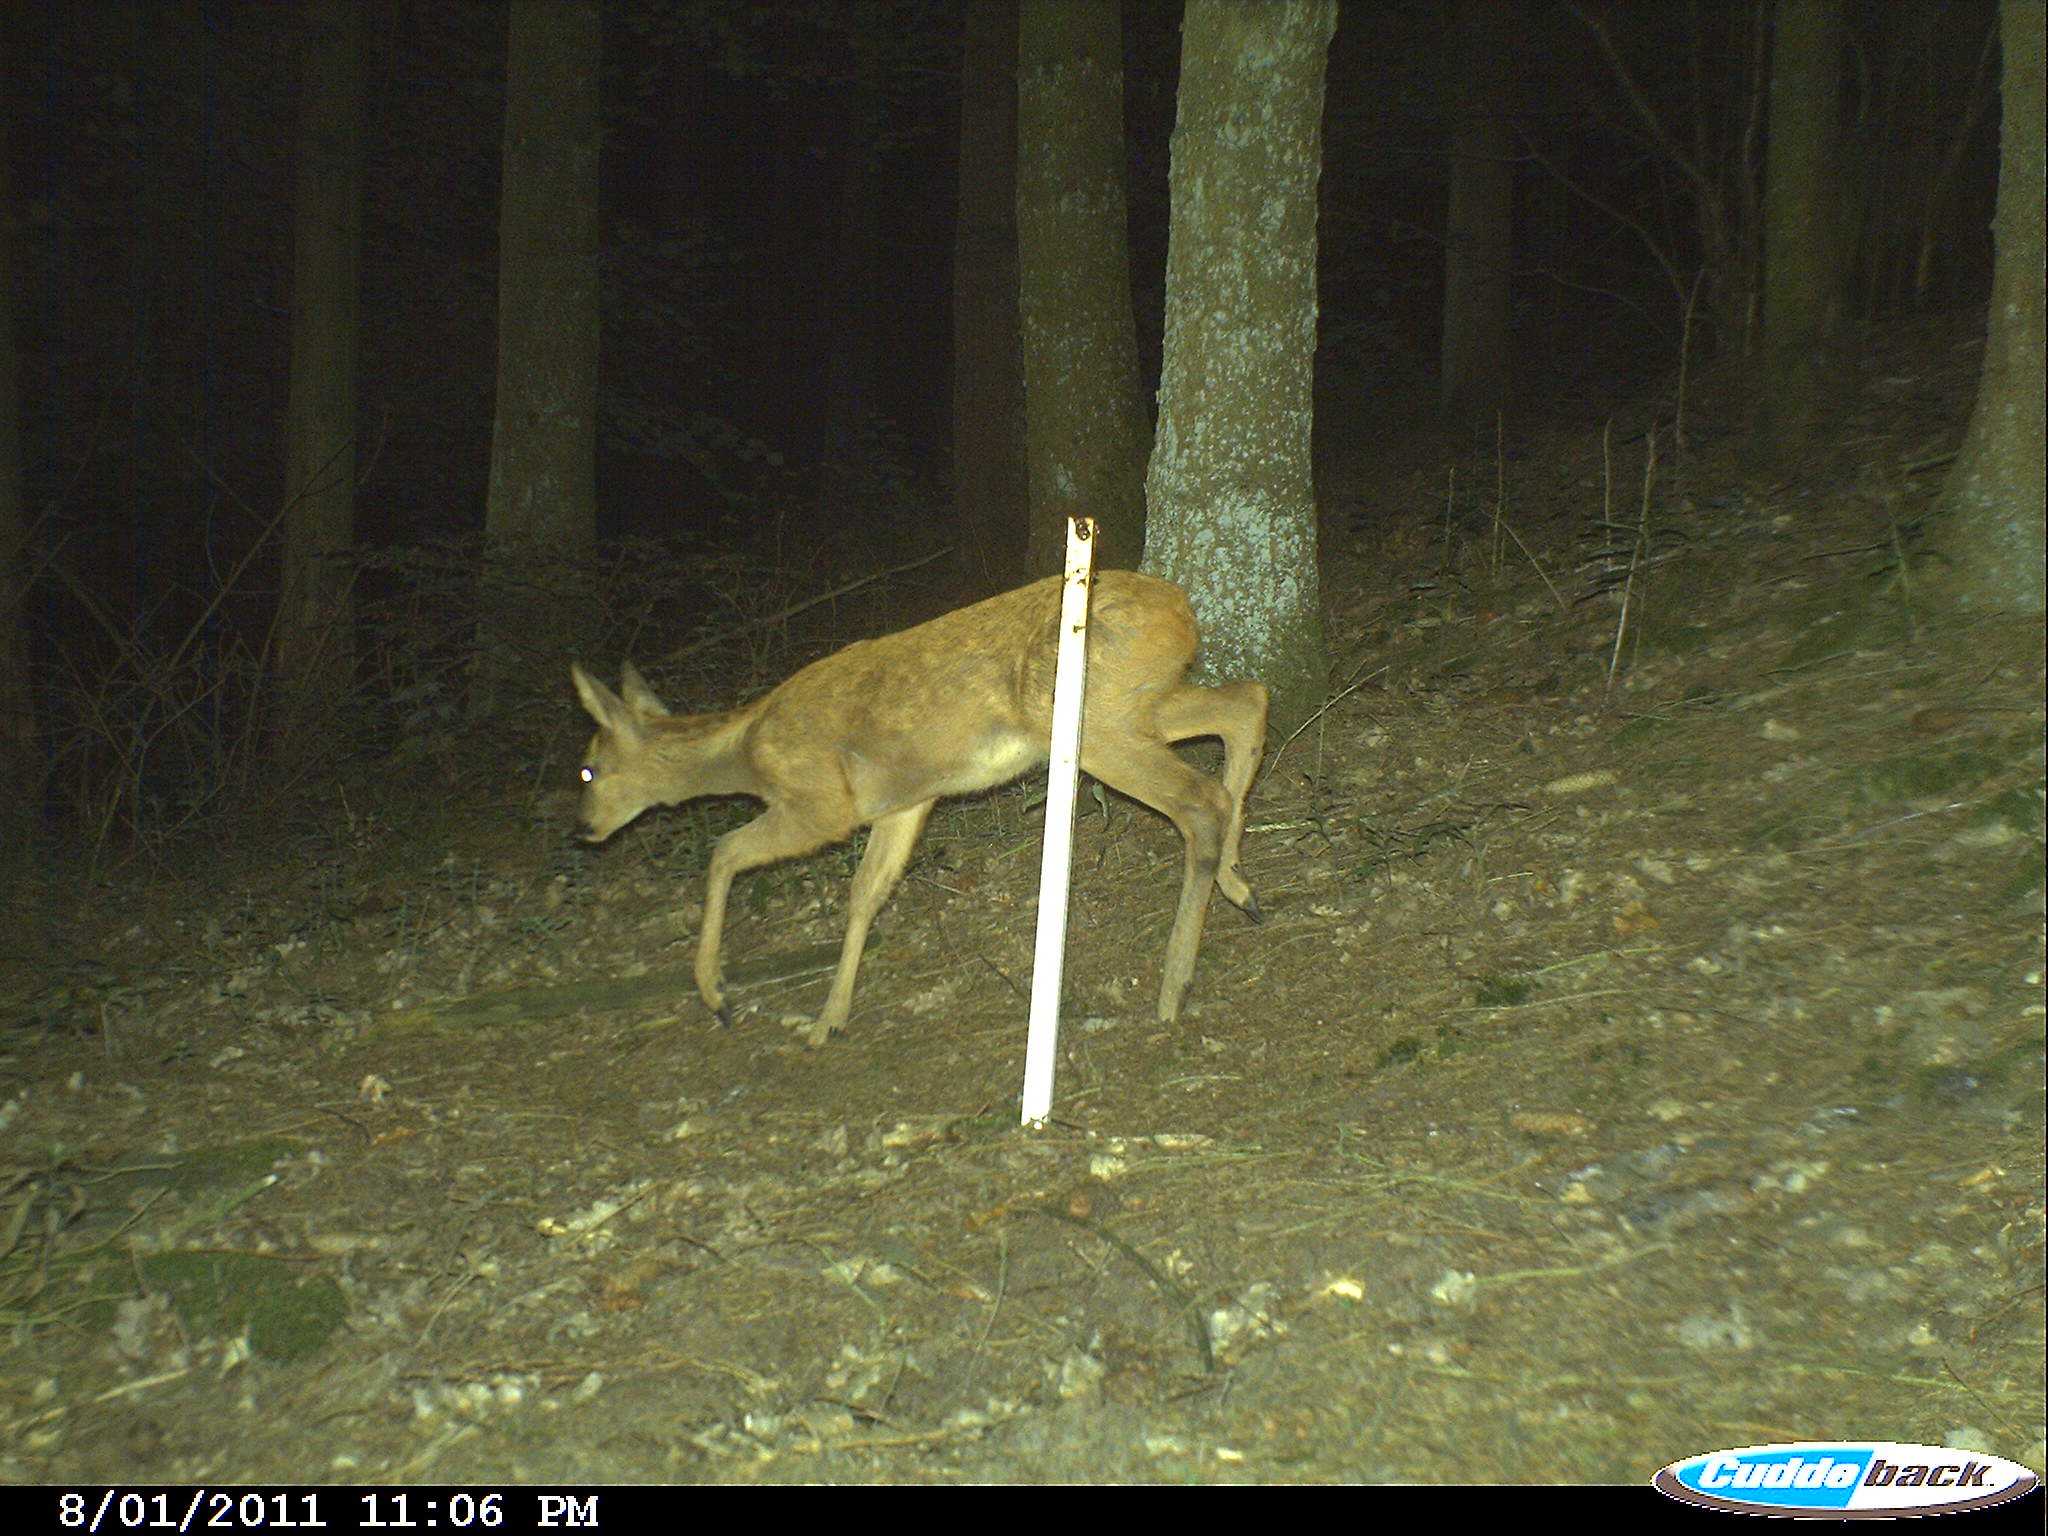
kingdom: Animalia
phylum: Chordata
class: Mammalia
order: Artiodactyla
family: Cervidae
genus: Capreolus
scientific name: Capreolus capreolus
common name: Western roe deer
